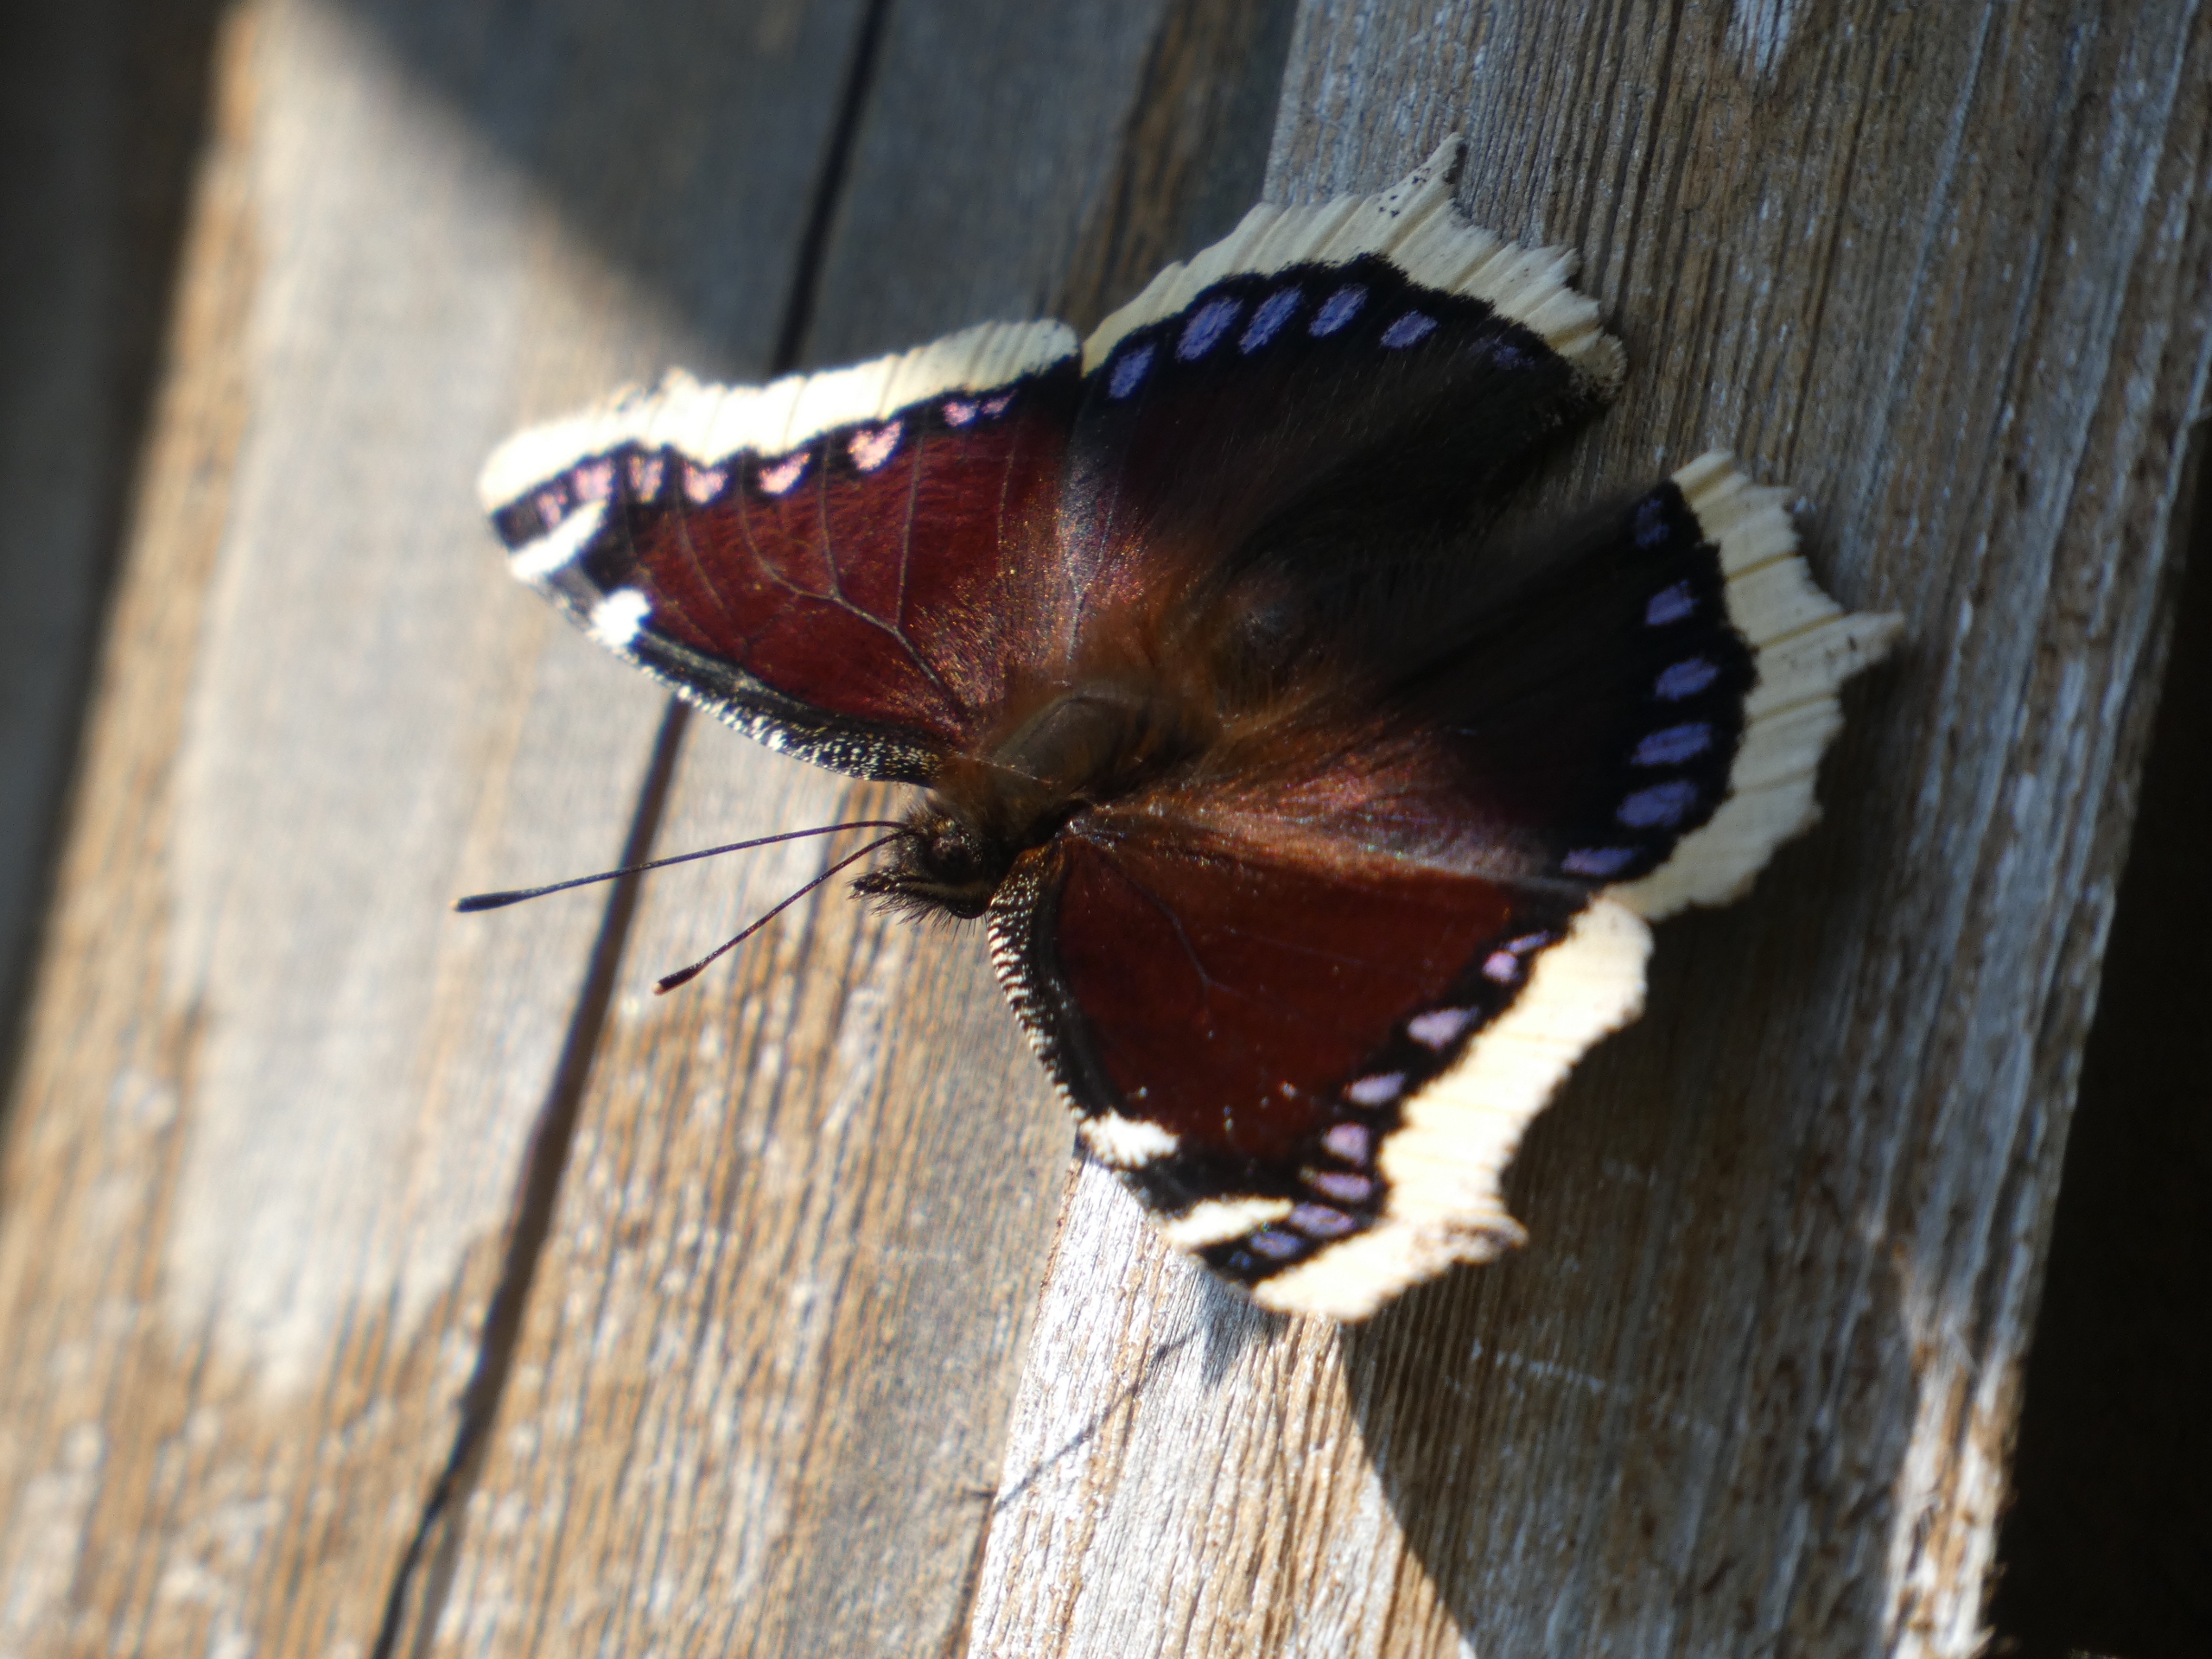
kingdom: Animalia
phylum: Arthropoda
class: Insecta
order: Lepidoptera
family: Nymphalidae
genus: Nymphalis
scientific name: Nymphalis antiopa
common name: Sørgekåbe
